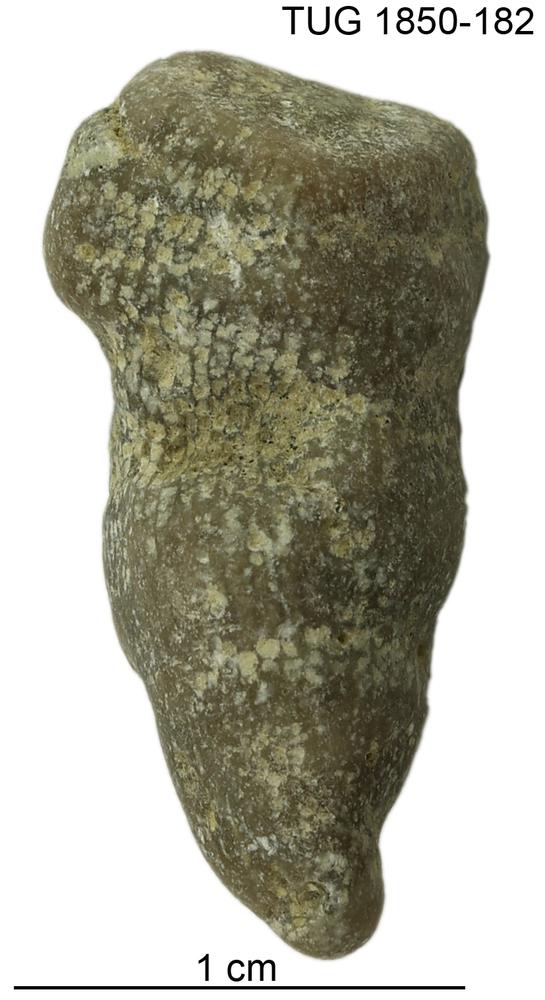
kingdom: Animalia
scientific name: Animalia
